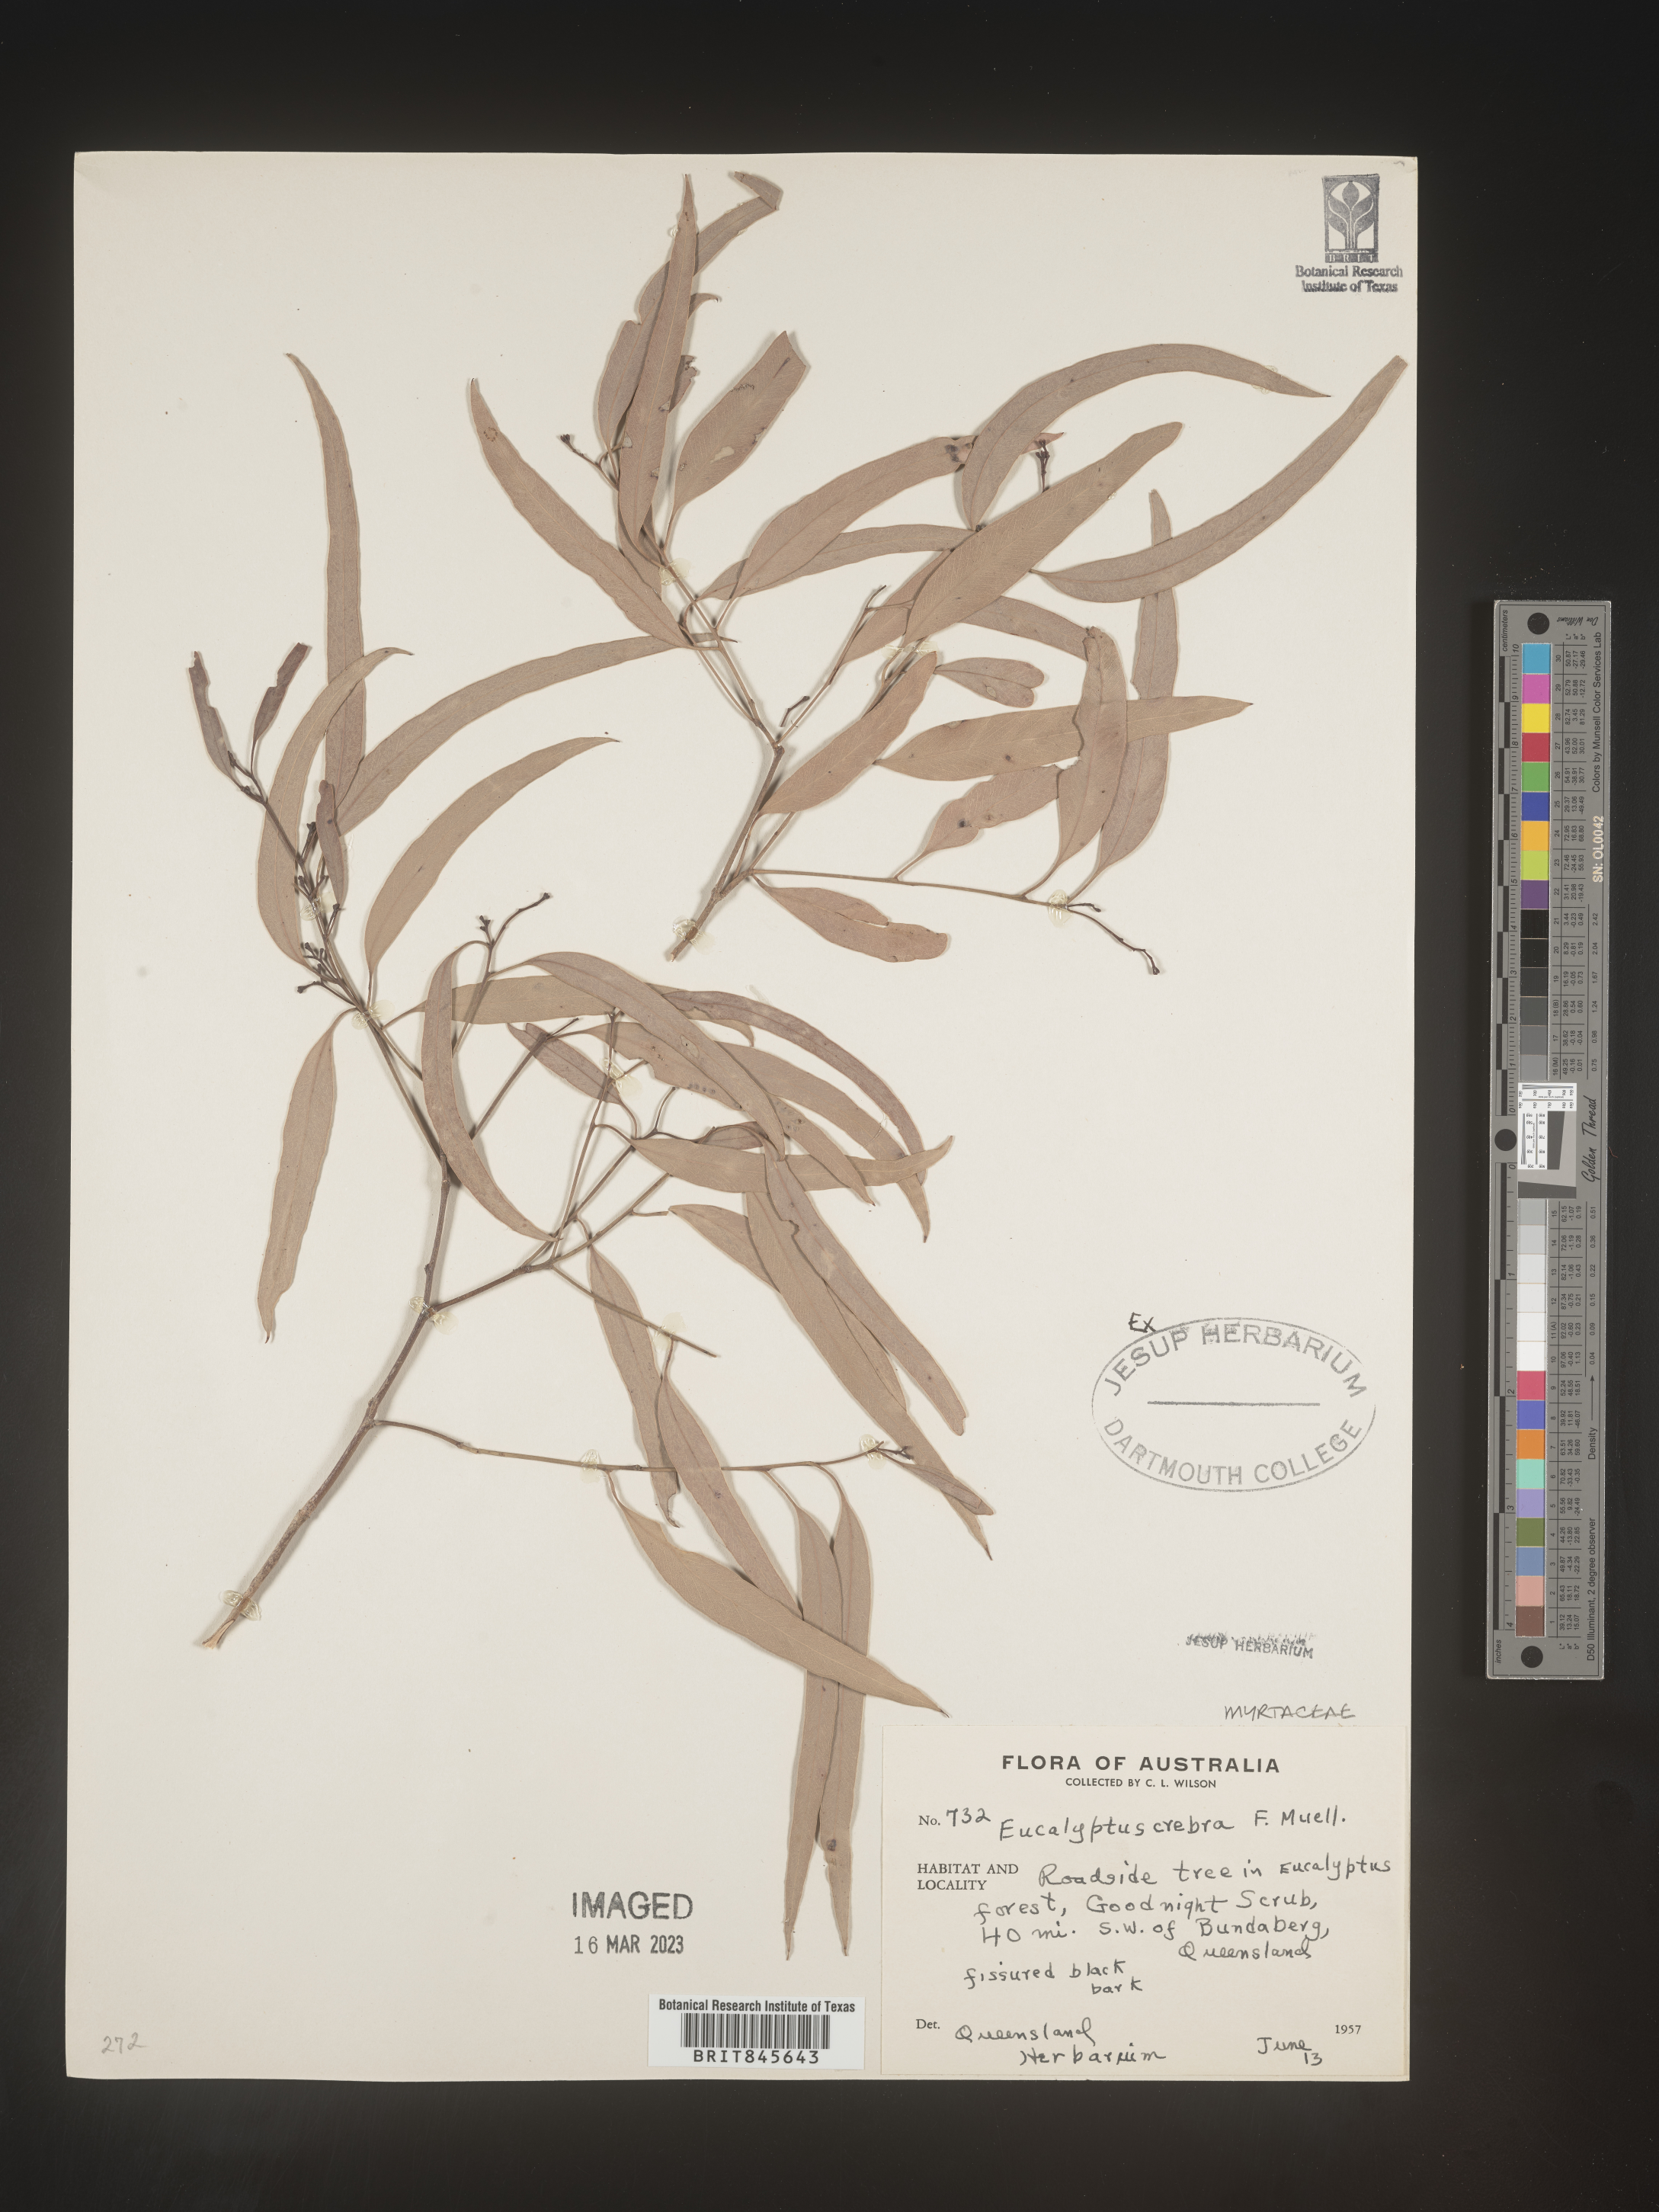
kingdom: Plantae
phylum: Tracheophyta
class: Magnoliopsida
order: Myrtales
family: Myrtaceae
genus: Eucalyptus
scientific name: Eucalyptus
